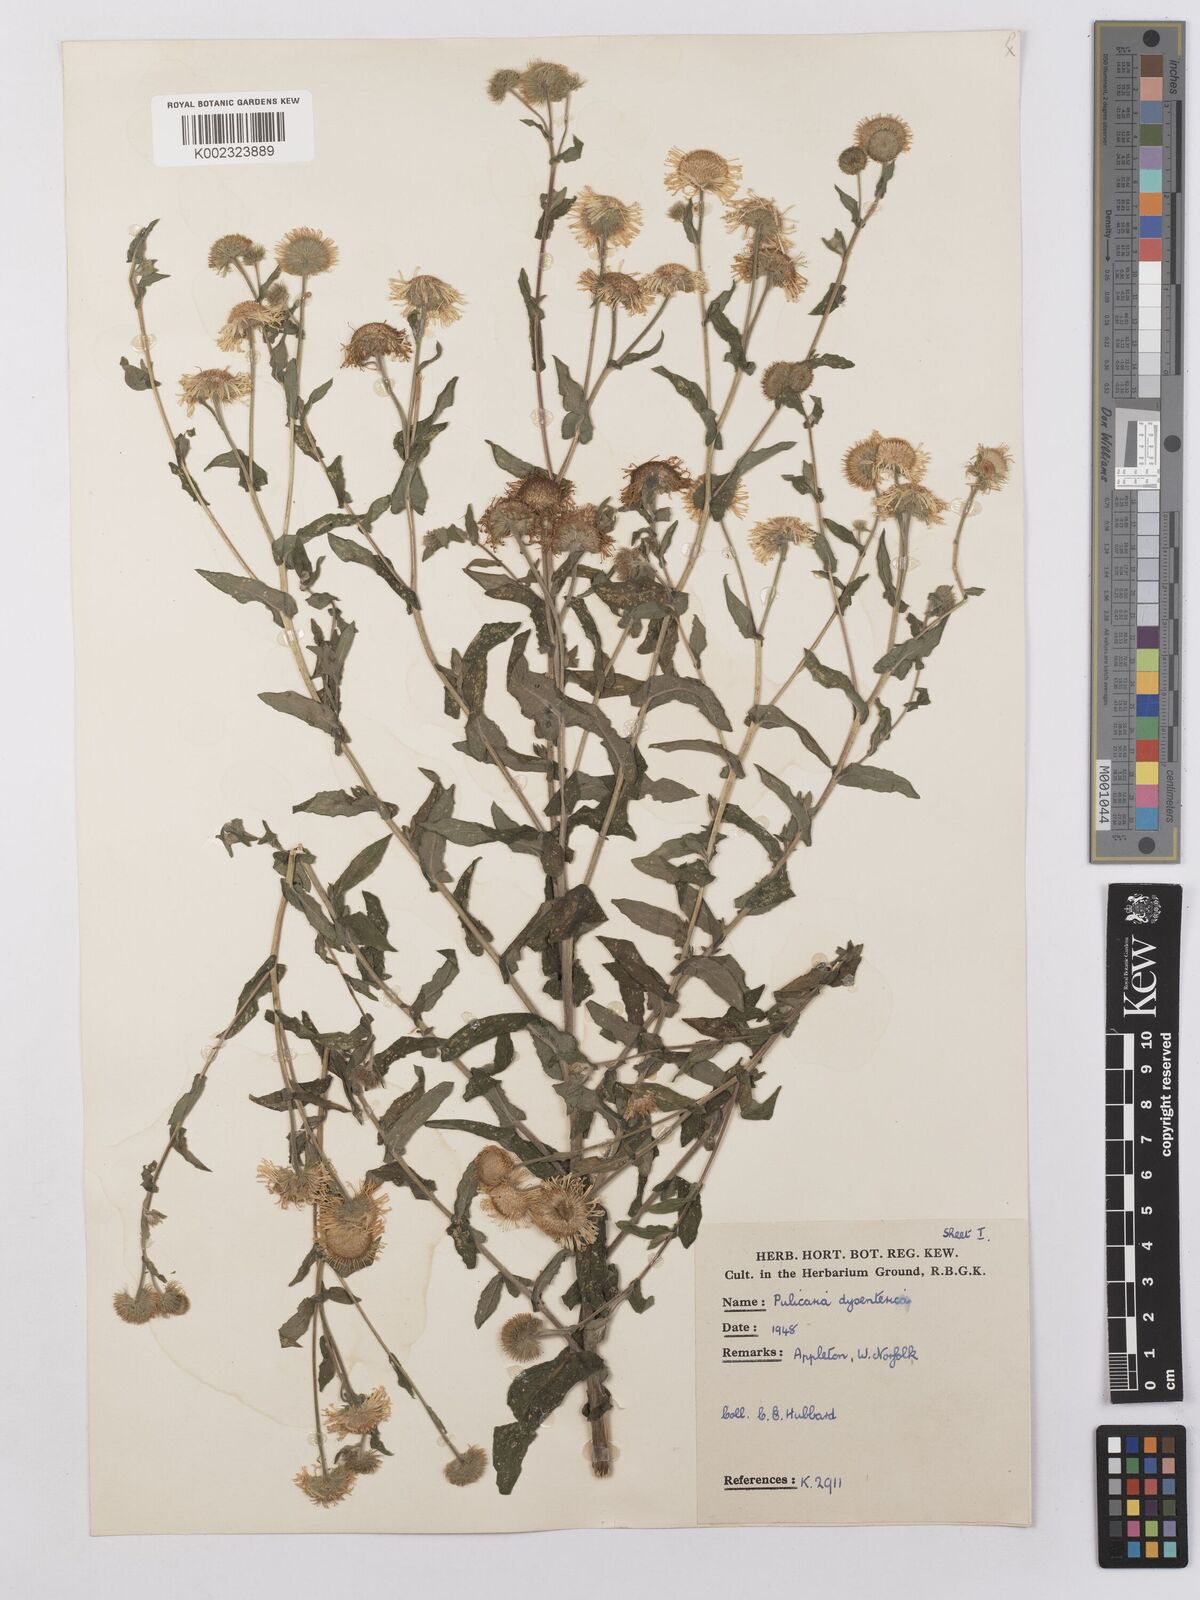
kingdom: Plantae
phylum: Tracheophyta
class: Magnoliopsida
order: Asterales
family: Asteraceae
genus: Pulicaria
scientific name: Pulicaria dysenterica
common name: Common fleabane
